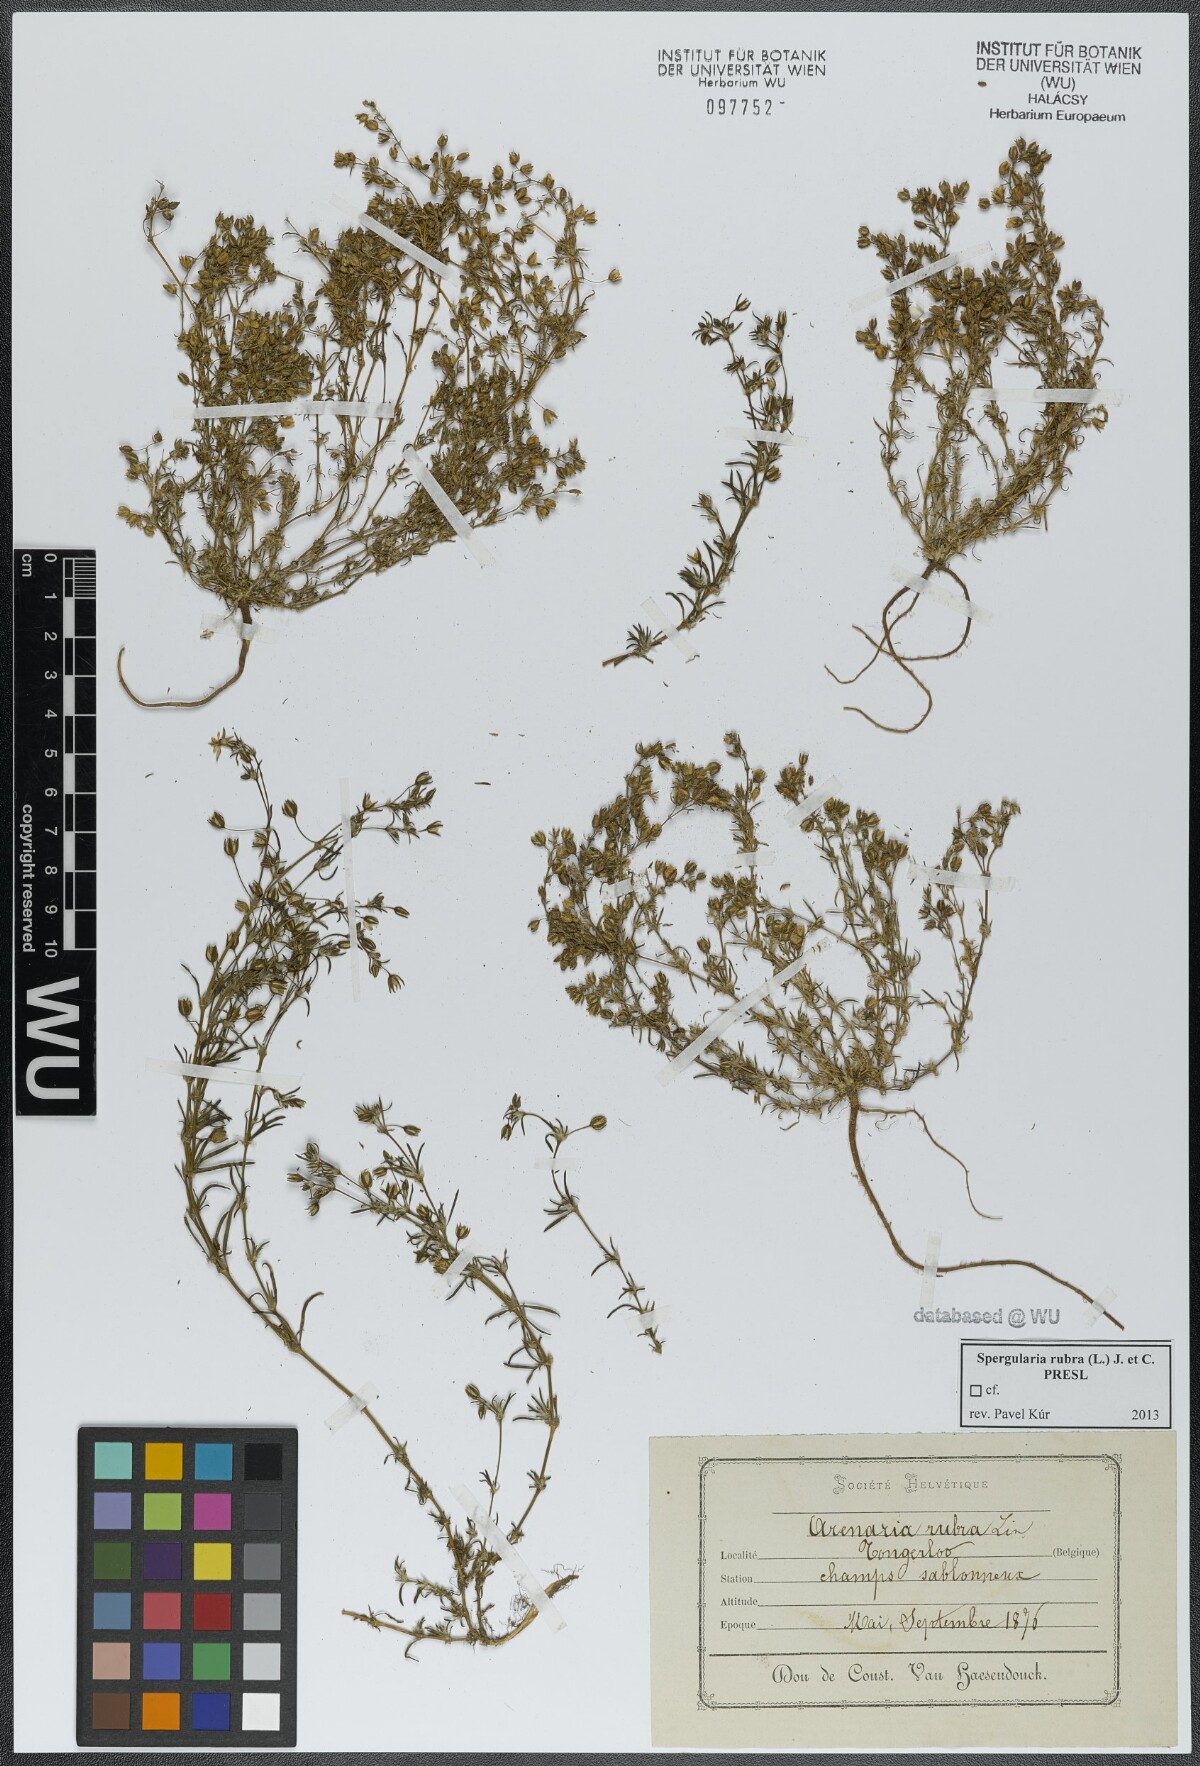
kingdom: Plantae
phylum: Tracheophyta
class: Magnoliopsida
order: Caryophyllales
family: Caryophyllaceae
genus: Spergularia
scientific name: Spergularia rubra
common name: Red sand-spurrey
